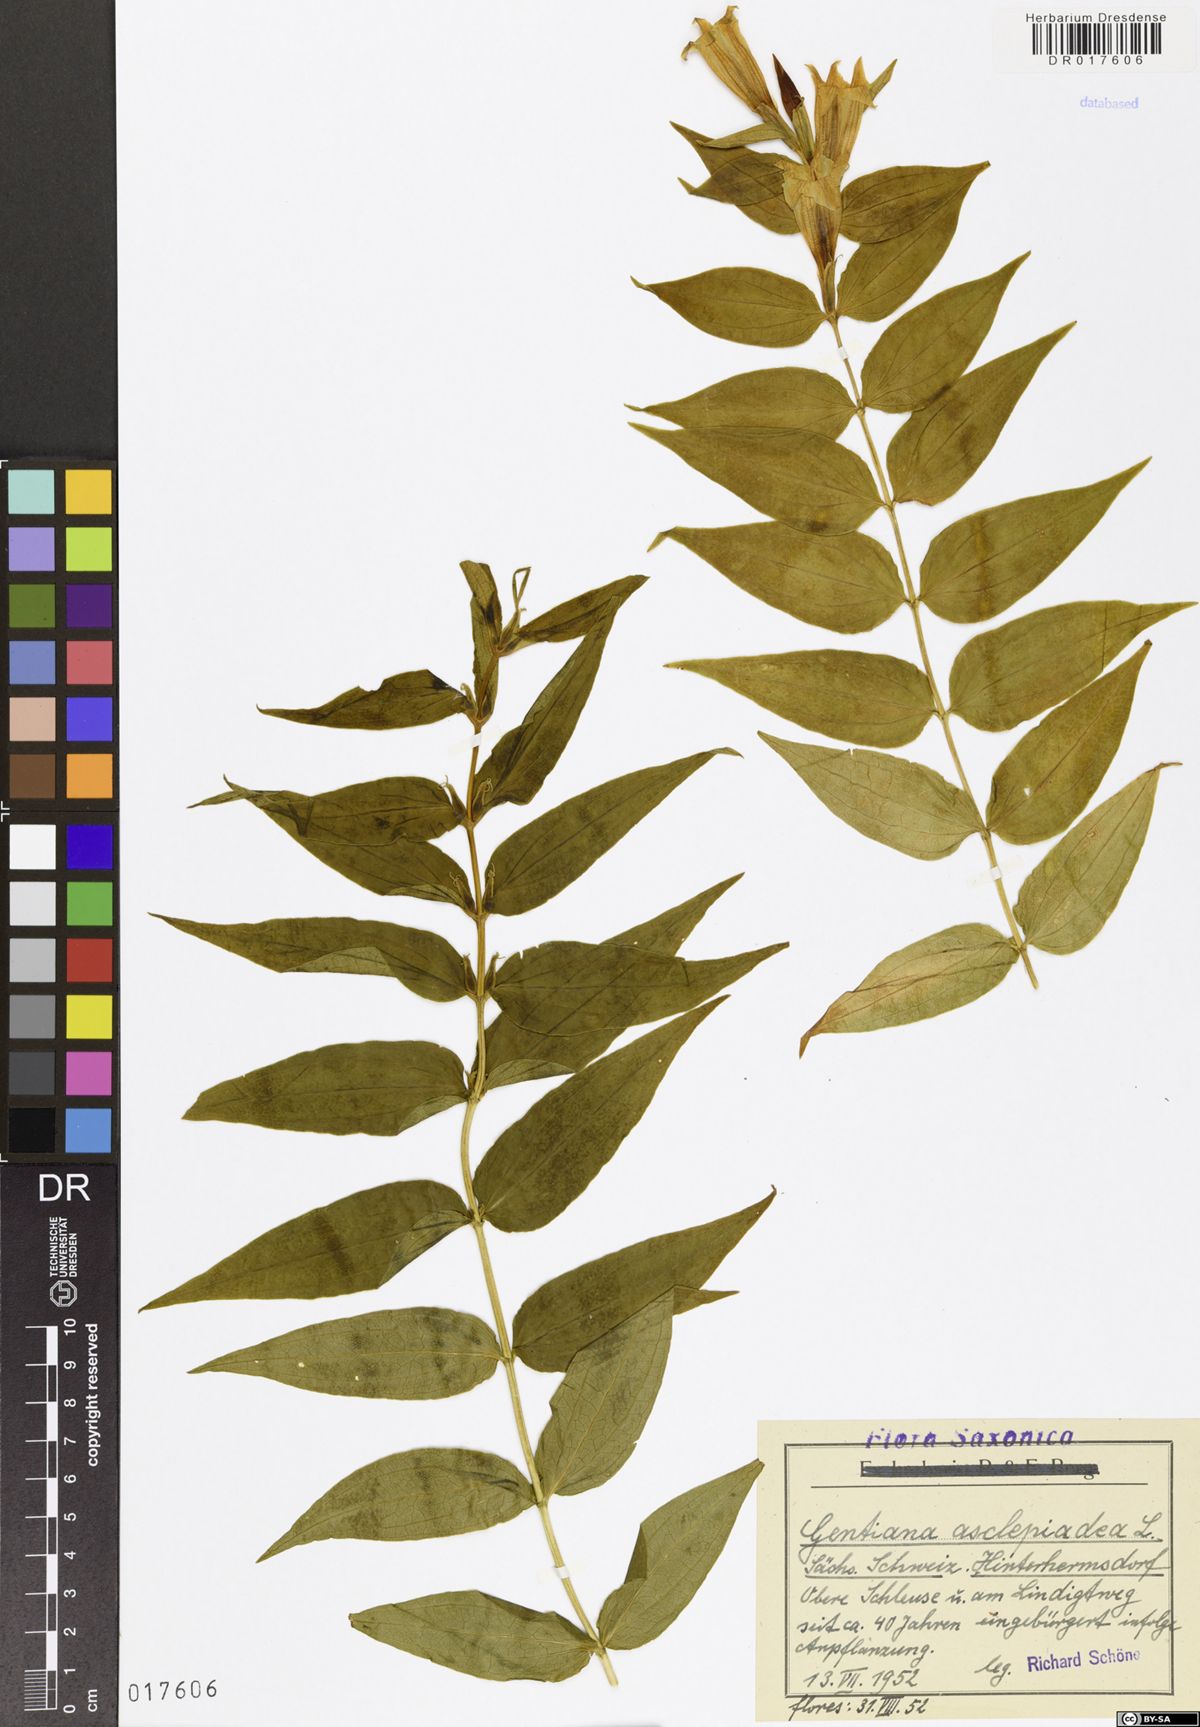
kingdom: Plantae
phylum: Tracheophyta
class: Magnoliopsida
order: Gentianales
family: Gentianaceae
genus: Gentiana
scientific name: Gentiana asclepiadea
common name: Willow gentian
